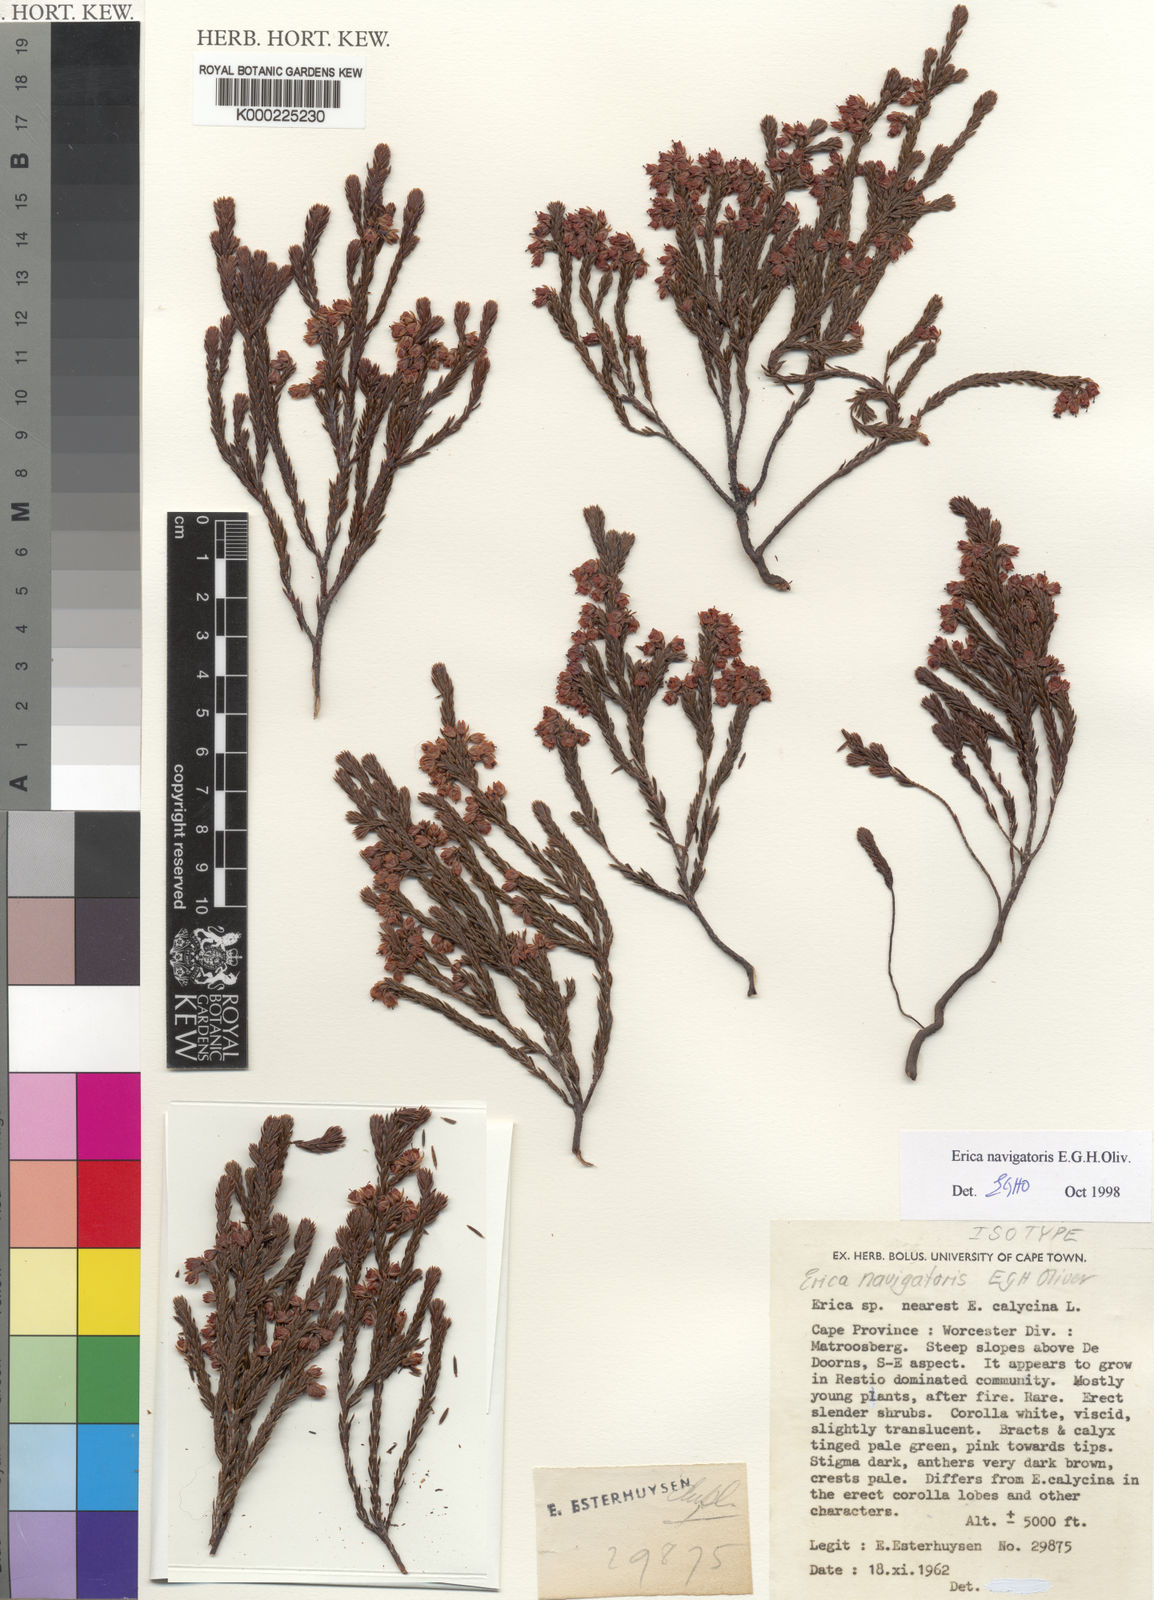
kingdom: Plantae
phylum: Tracheophyta
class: Magnoliopsida
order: Ericales
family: Ericaceae
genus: Erica
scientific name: Erica navigatoris
